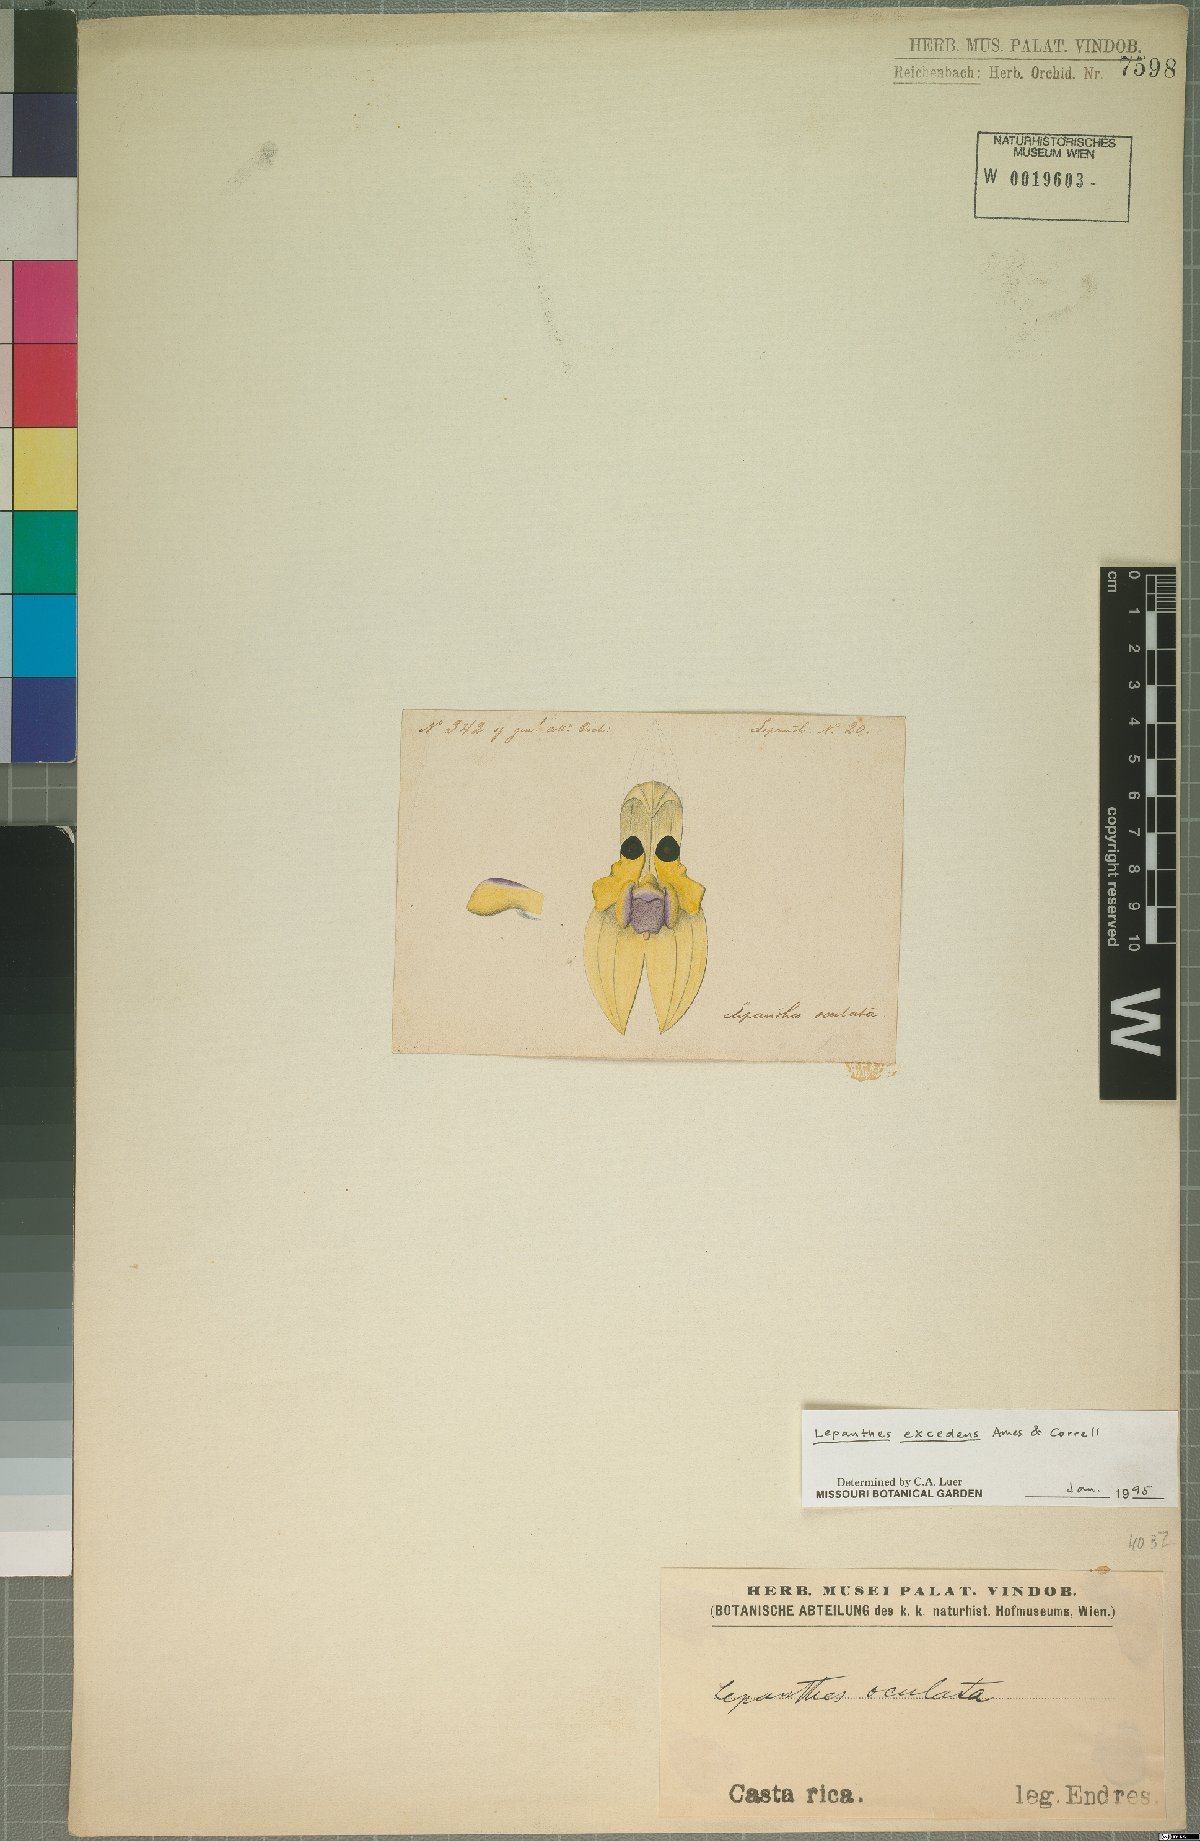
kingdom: Plantae
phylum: Tracheophyta
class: Liliopsida
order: Asparagales
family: Orchidaceae
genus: Lepanthes
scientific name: Lepanthes excedens
